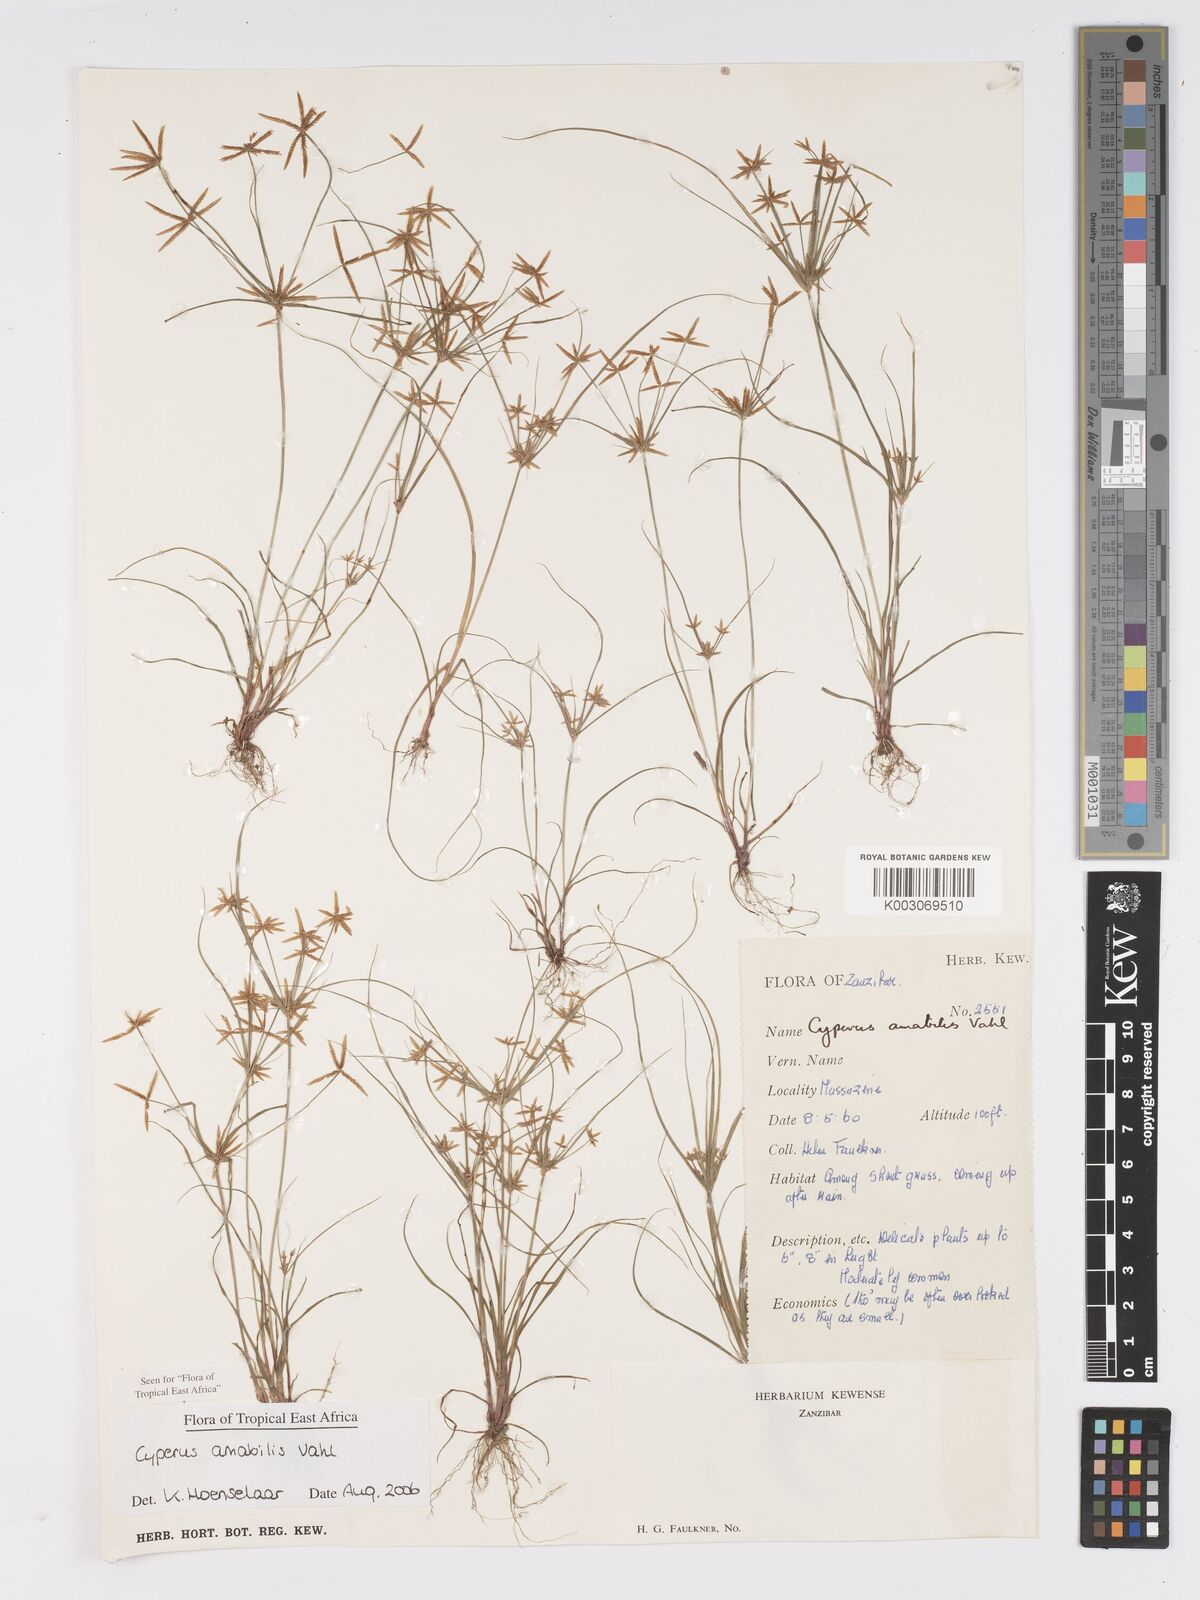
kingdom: Plantae
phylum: Tracheophyta
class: Liliopsida
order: Poales
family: Cyperaceae
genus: Cyperus
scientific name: Cyperus amabilis
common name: Foothill flat sedge
